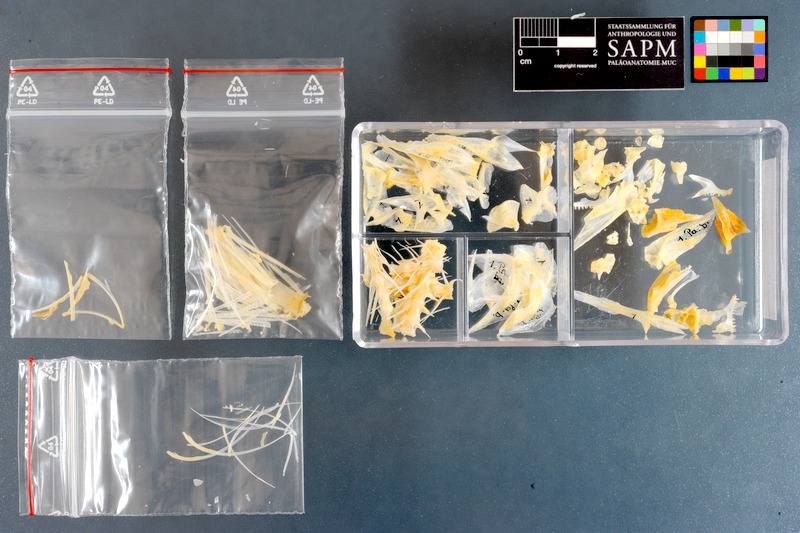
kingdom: Animalia
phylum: Chordata
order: Perciformes
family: Mullidae
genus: Parupeneus
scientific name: Parupeneus barberinus
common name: Dash-and-dot goatfish
